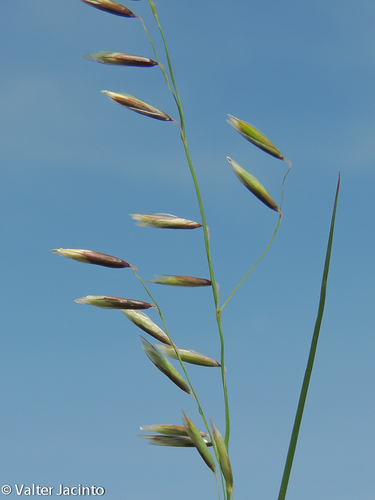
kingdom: Plantae
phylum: Tracheophyta
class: Liliopsida
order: Poales
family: Poaceae
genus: Melica
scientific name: Melica uniflora
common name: Wood melick
